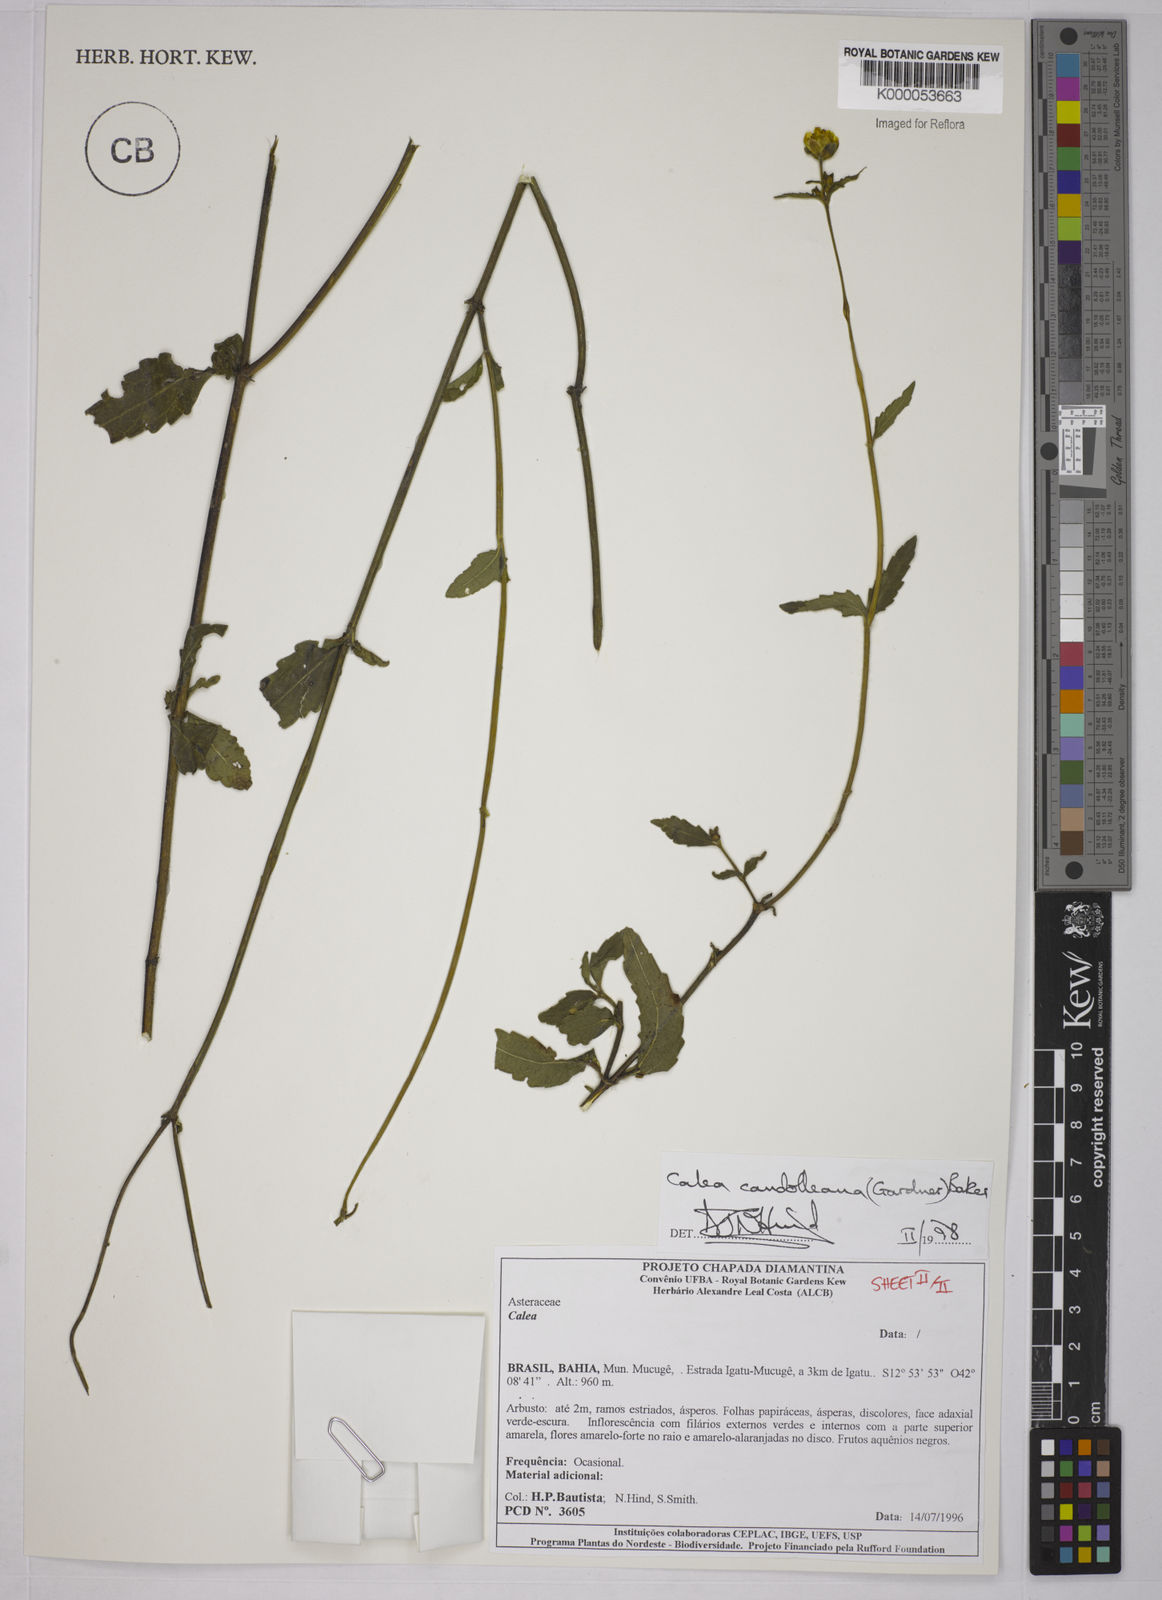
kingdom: Plantae
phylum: Tracheophyta
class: Magnoliopsida
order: Asterales
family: Asteraceae
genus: Calea
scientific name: Calea candolleana
